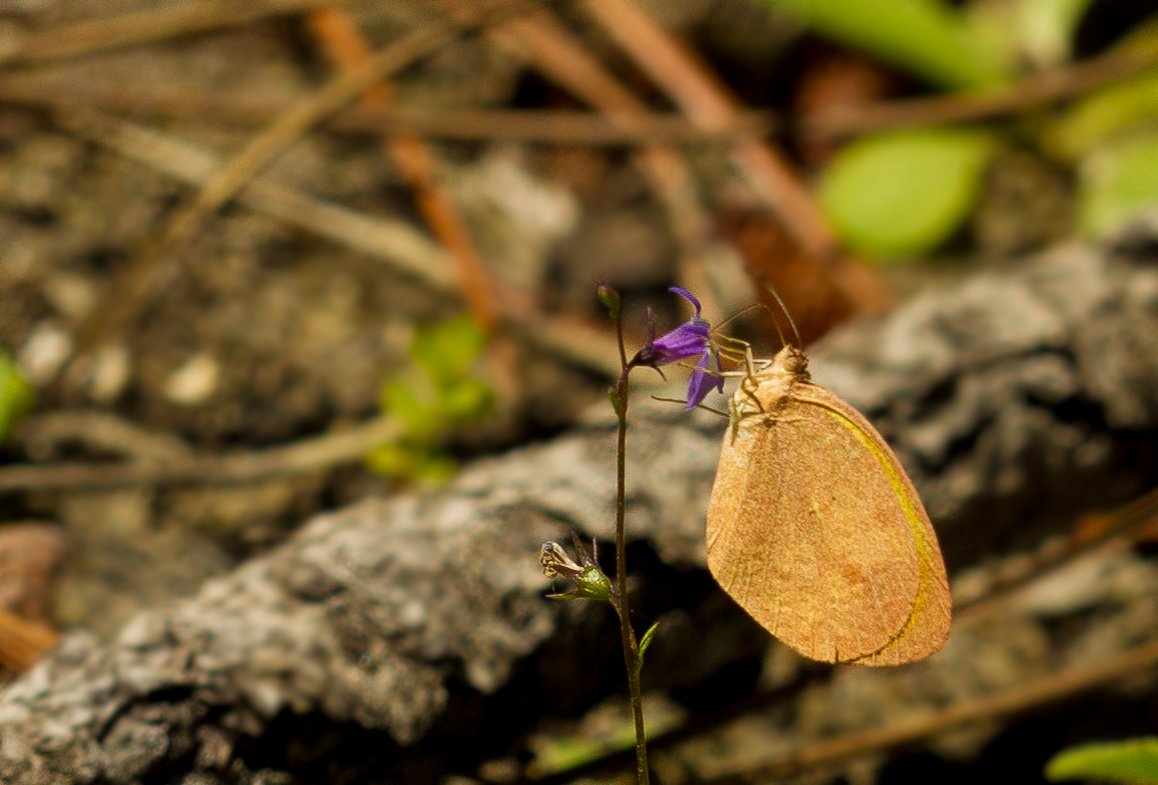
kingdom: Animalia
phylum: Arthropoda
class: Insecta
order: Lepidoptera
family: Pieridae
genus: Eurema
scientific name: Eurema daira
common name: Barred Yellow
